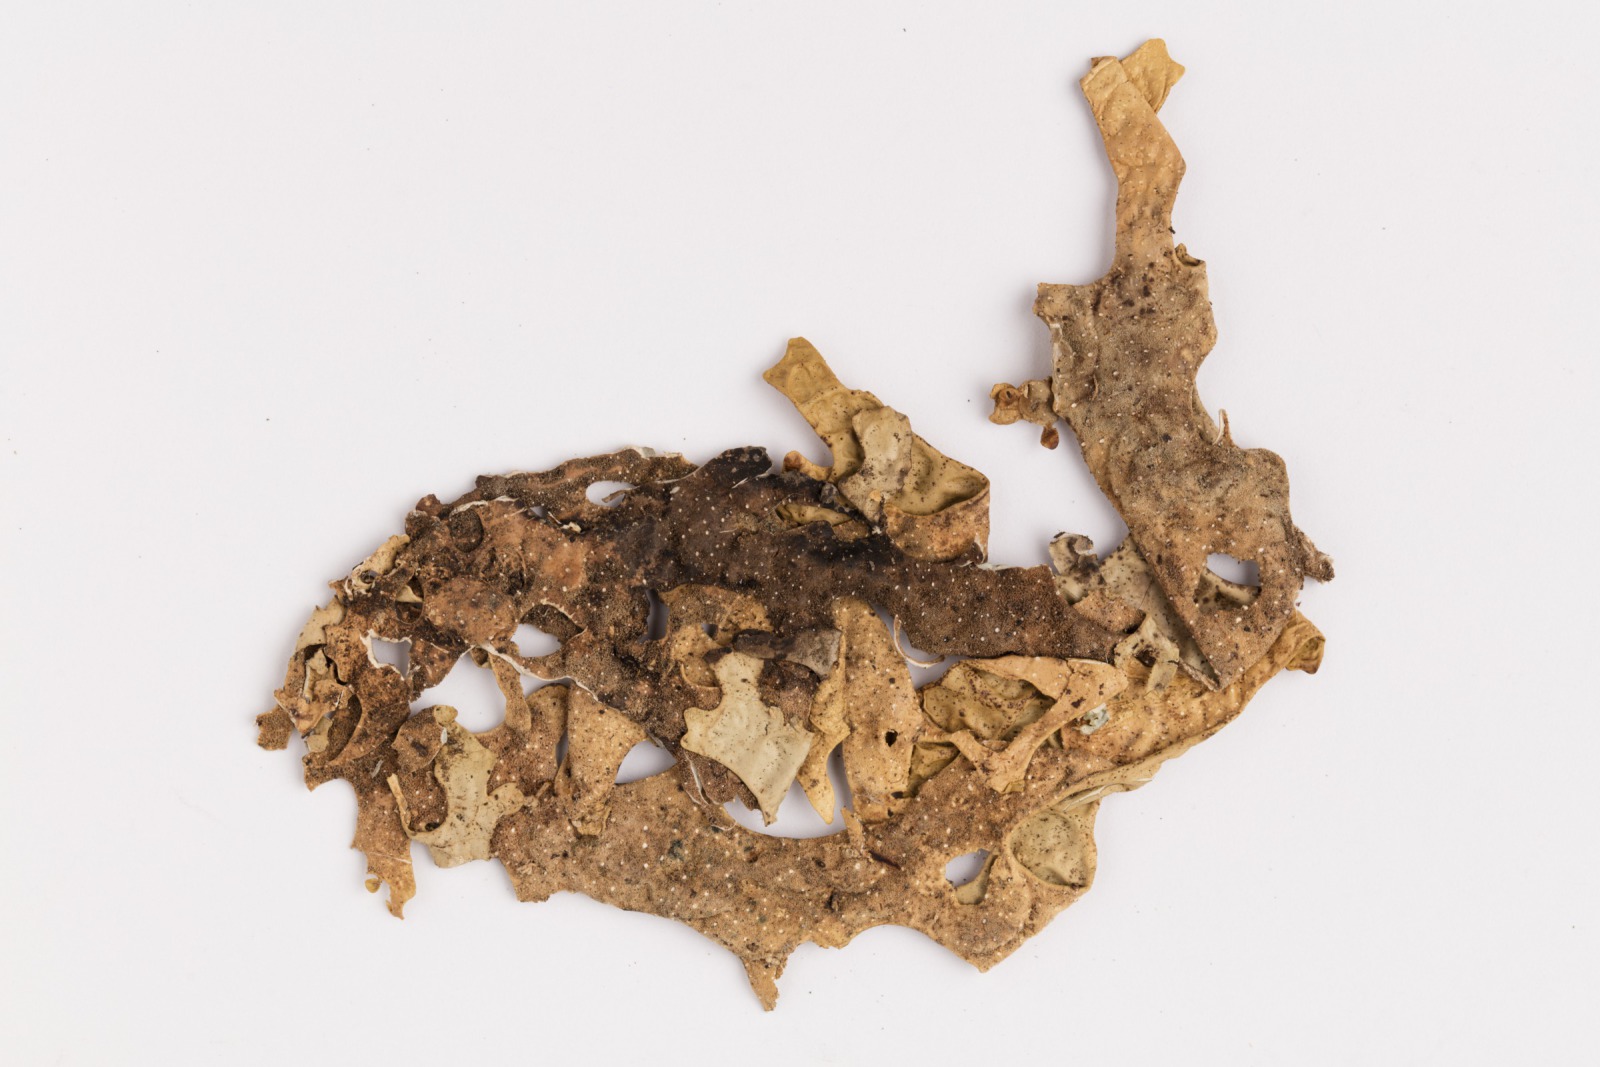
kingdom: Fungi
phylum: Ascomycota
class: Lecanoromycetes
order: Peltigerales
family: Lobariaceae
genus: Pseudocyphellaria
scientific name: Pseudocyphellaria billardierei
